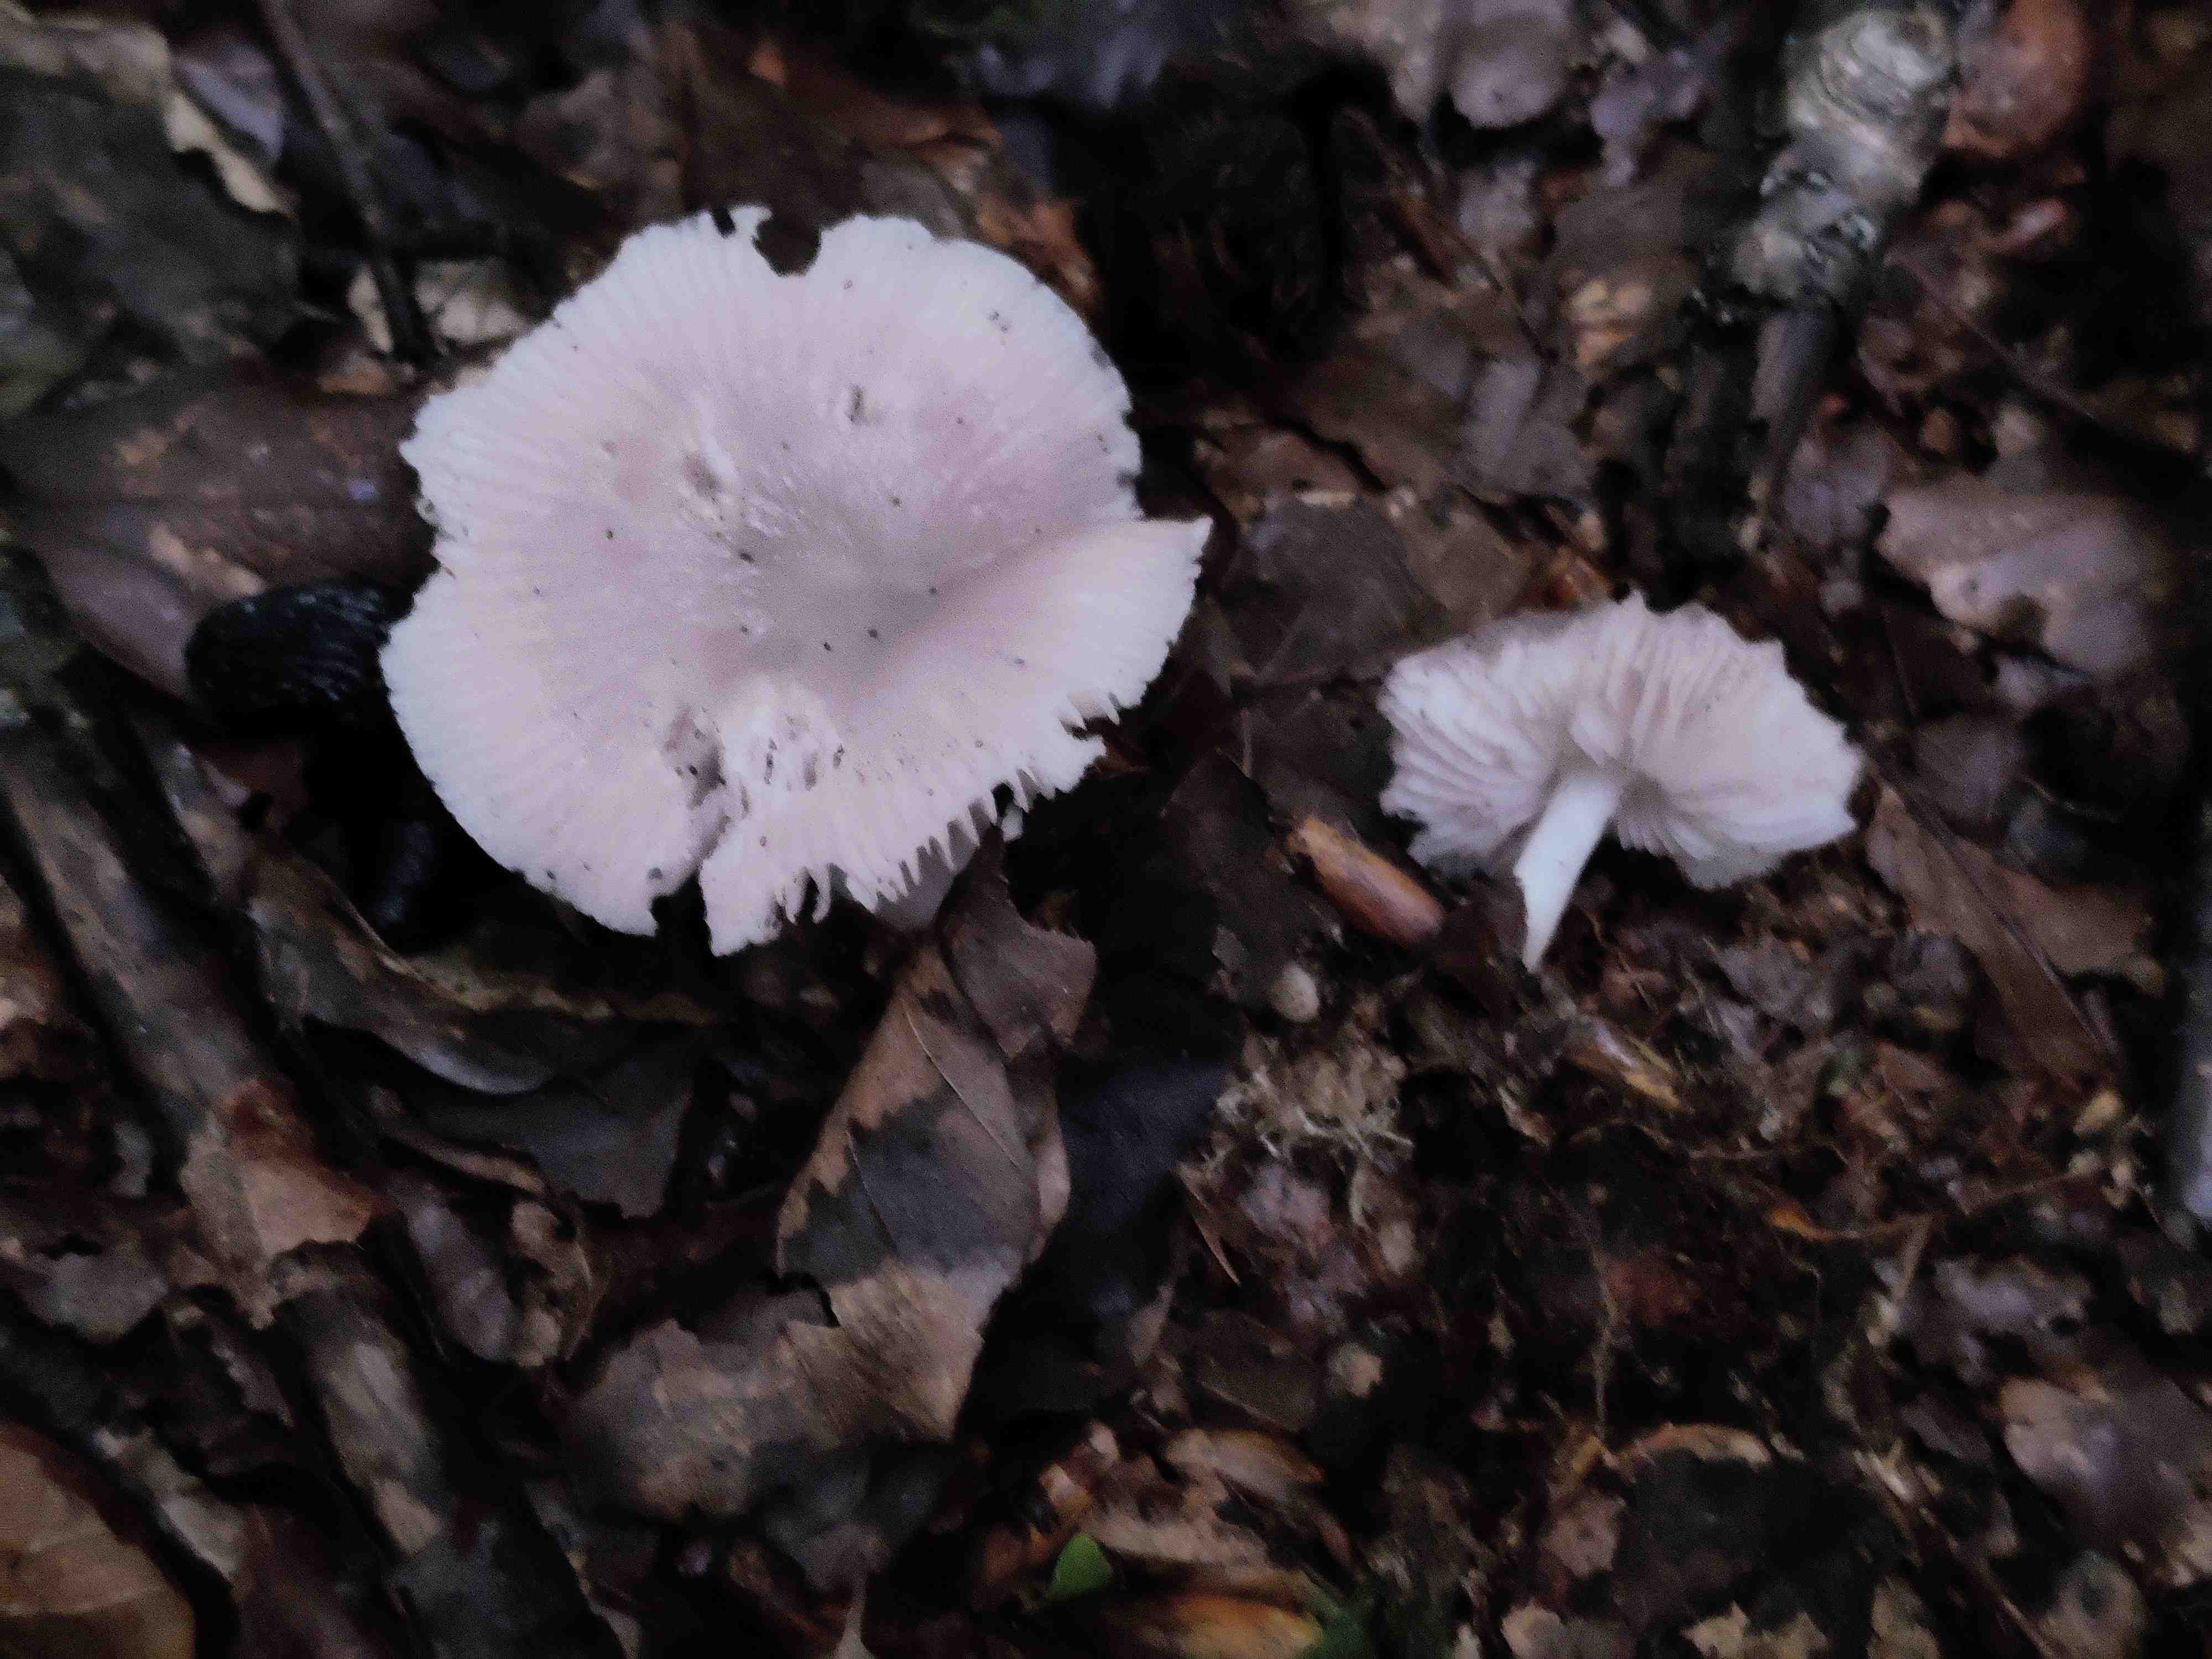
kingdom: Fungi
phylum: Basidiomycota
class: Agaricomycetes
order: Agaricales
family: Mycenaceae
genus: Mycena
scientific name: Mycena rosea
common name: rosa huesvamp
